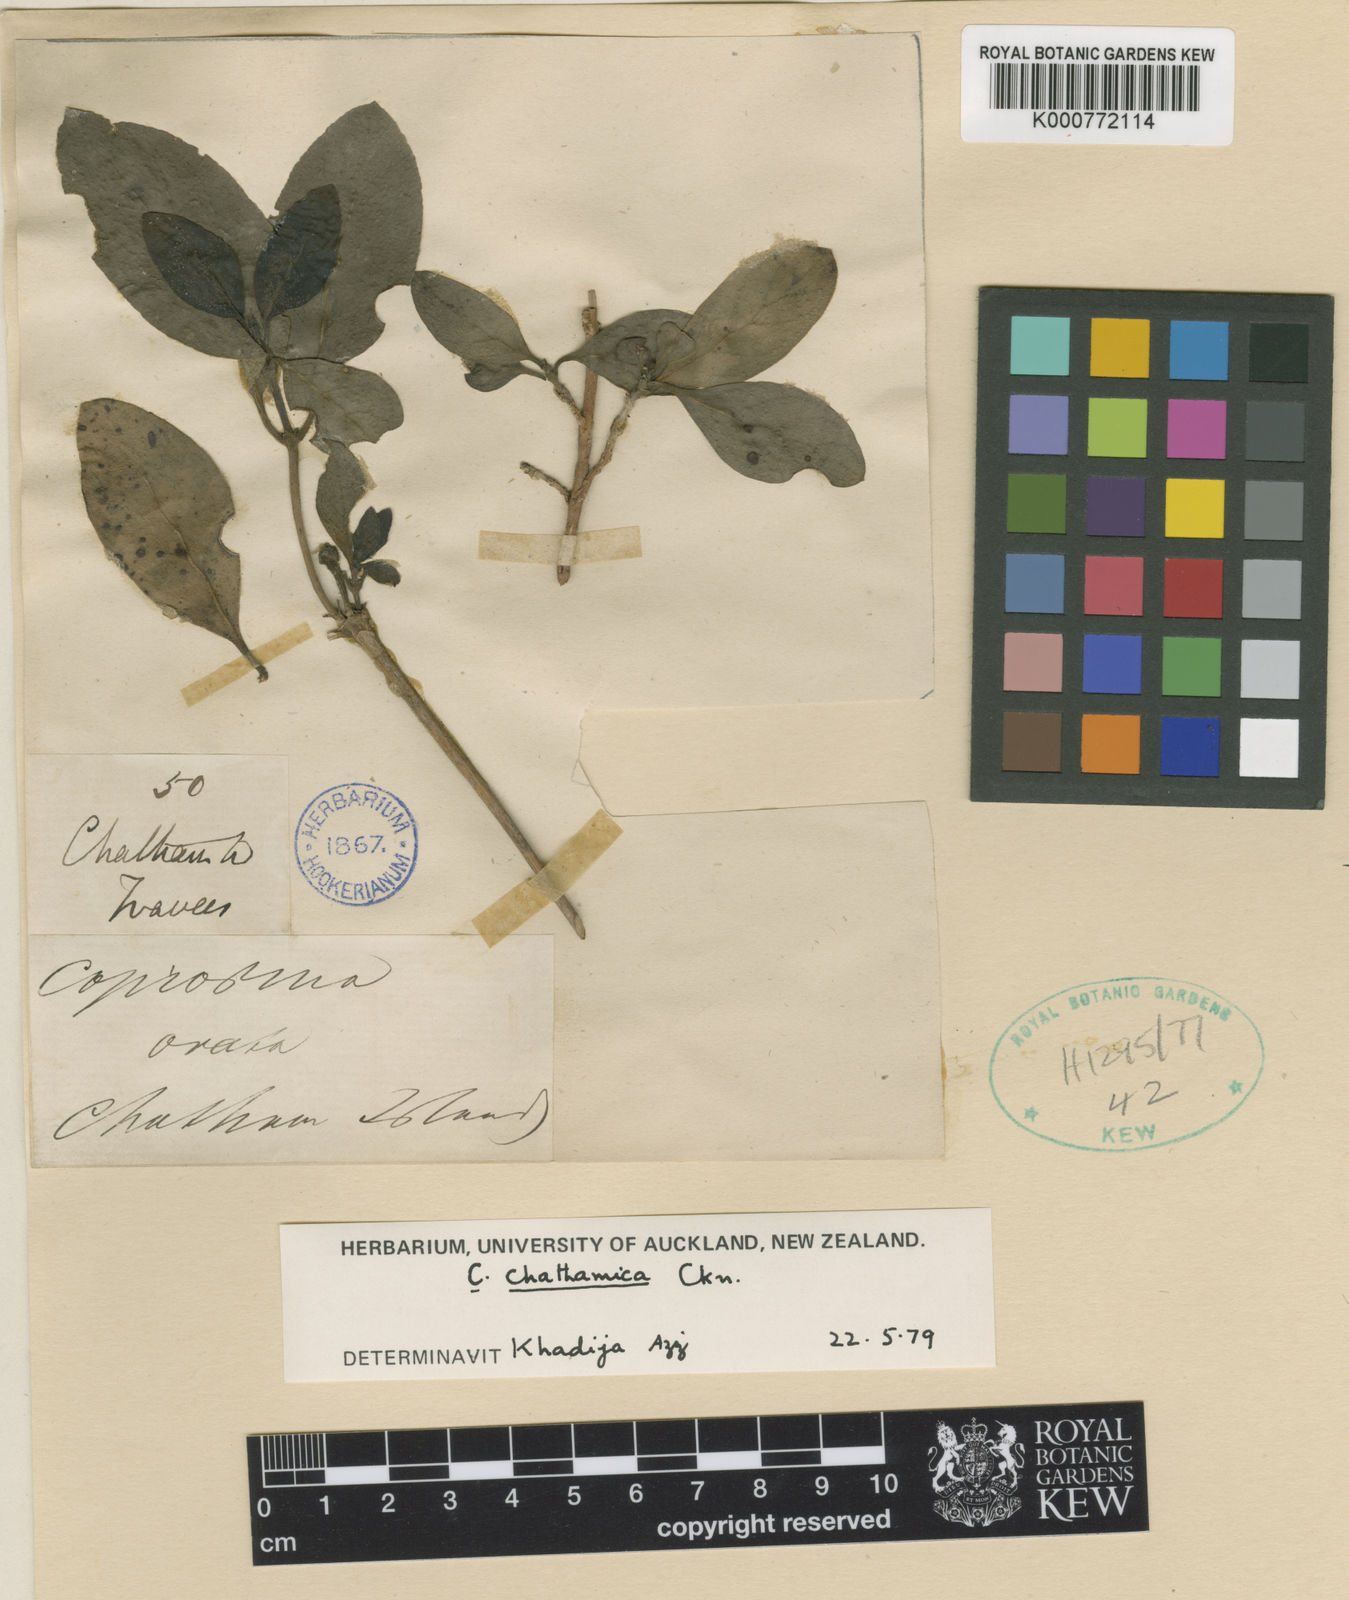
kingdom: Plantae
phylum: Tracheophyta
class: Magnoliopsida
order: Gentianales
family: Rubiaceae
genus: Coprosma
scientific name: Coprosma chathamica
